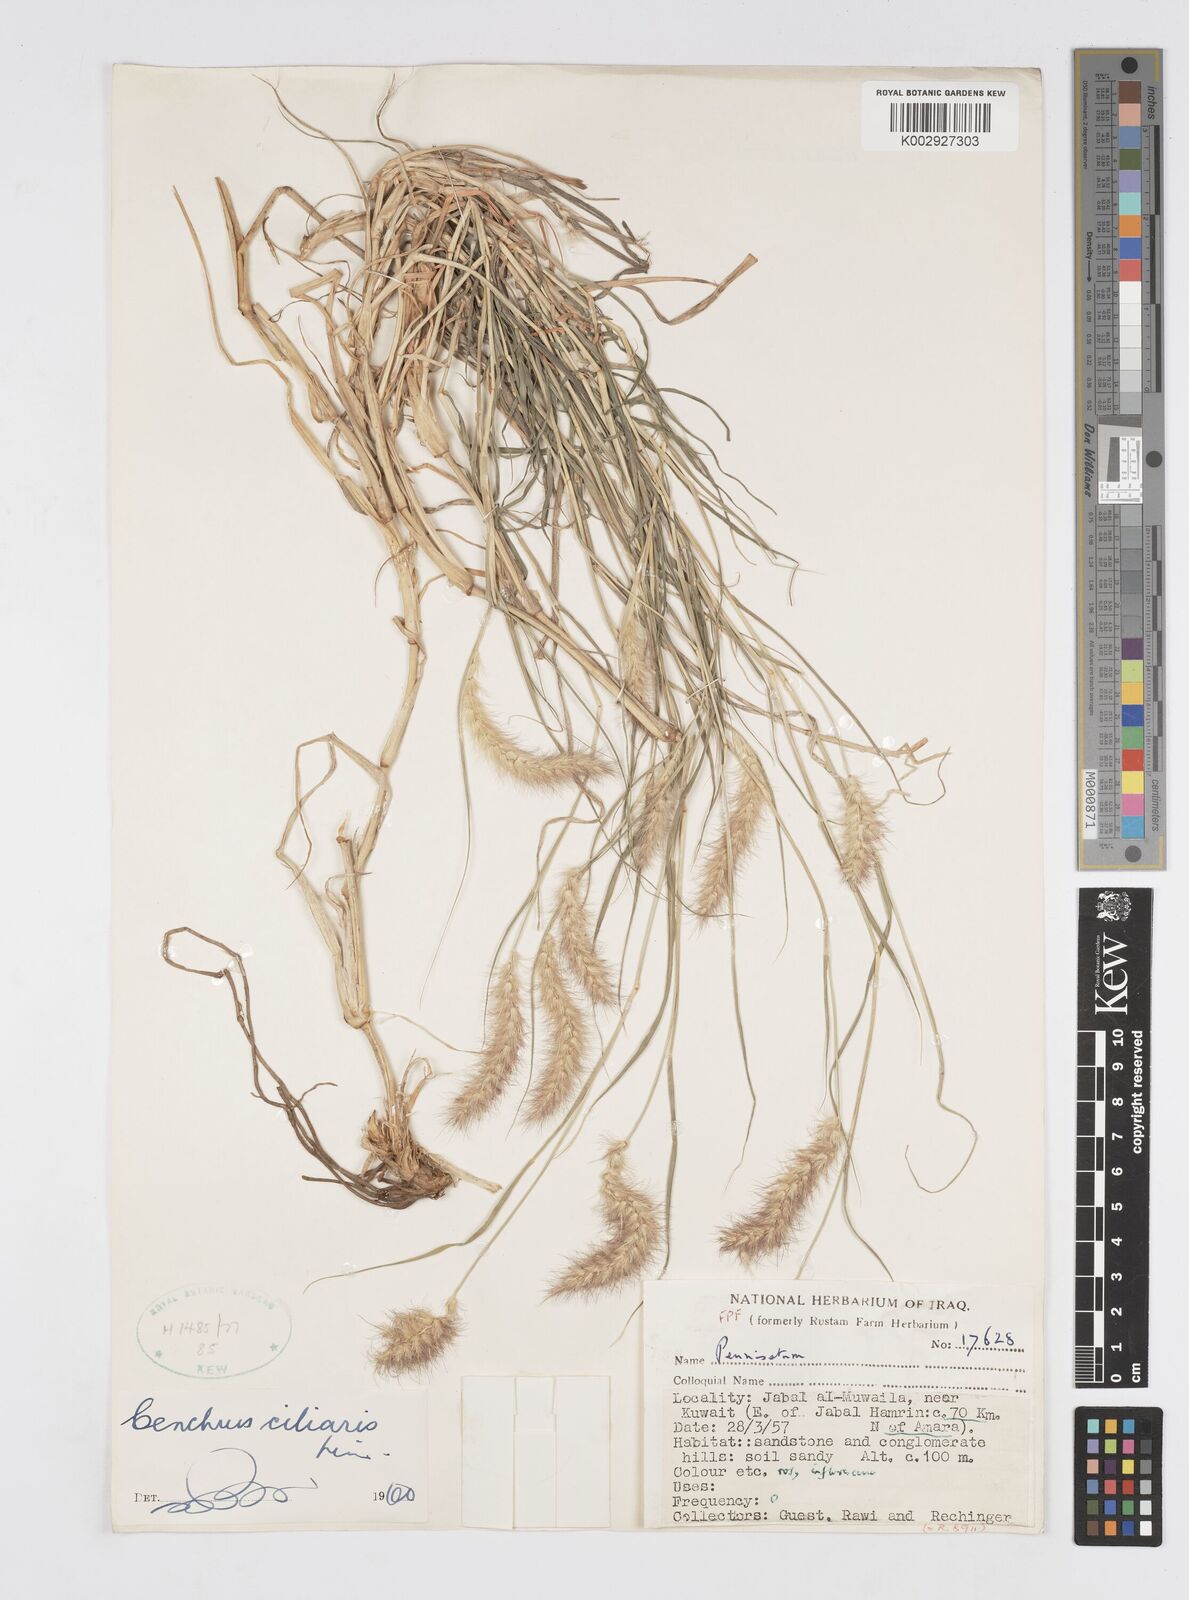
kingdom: Plantae
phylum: Tracheophyta
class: Liliopsida
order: Poales
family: Poaceae
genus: Cenchrus
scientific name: Cenchrus ciliaris
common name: Buffelgrass
